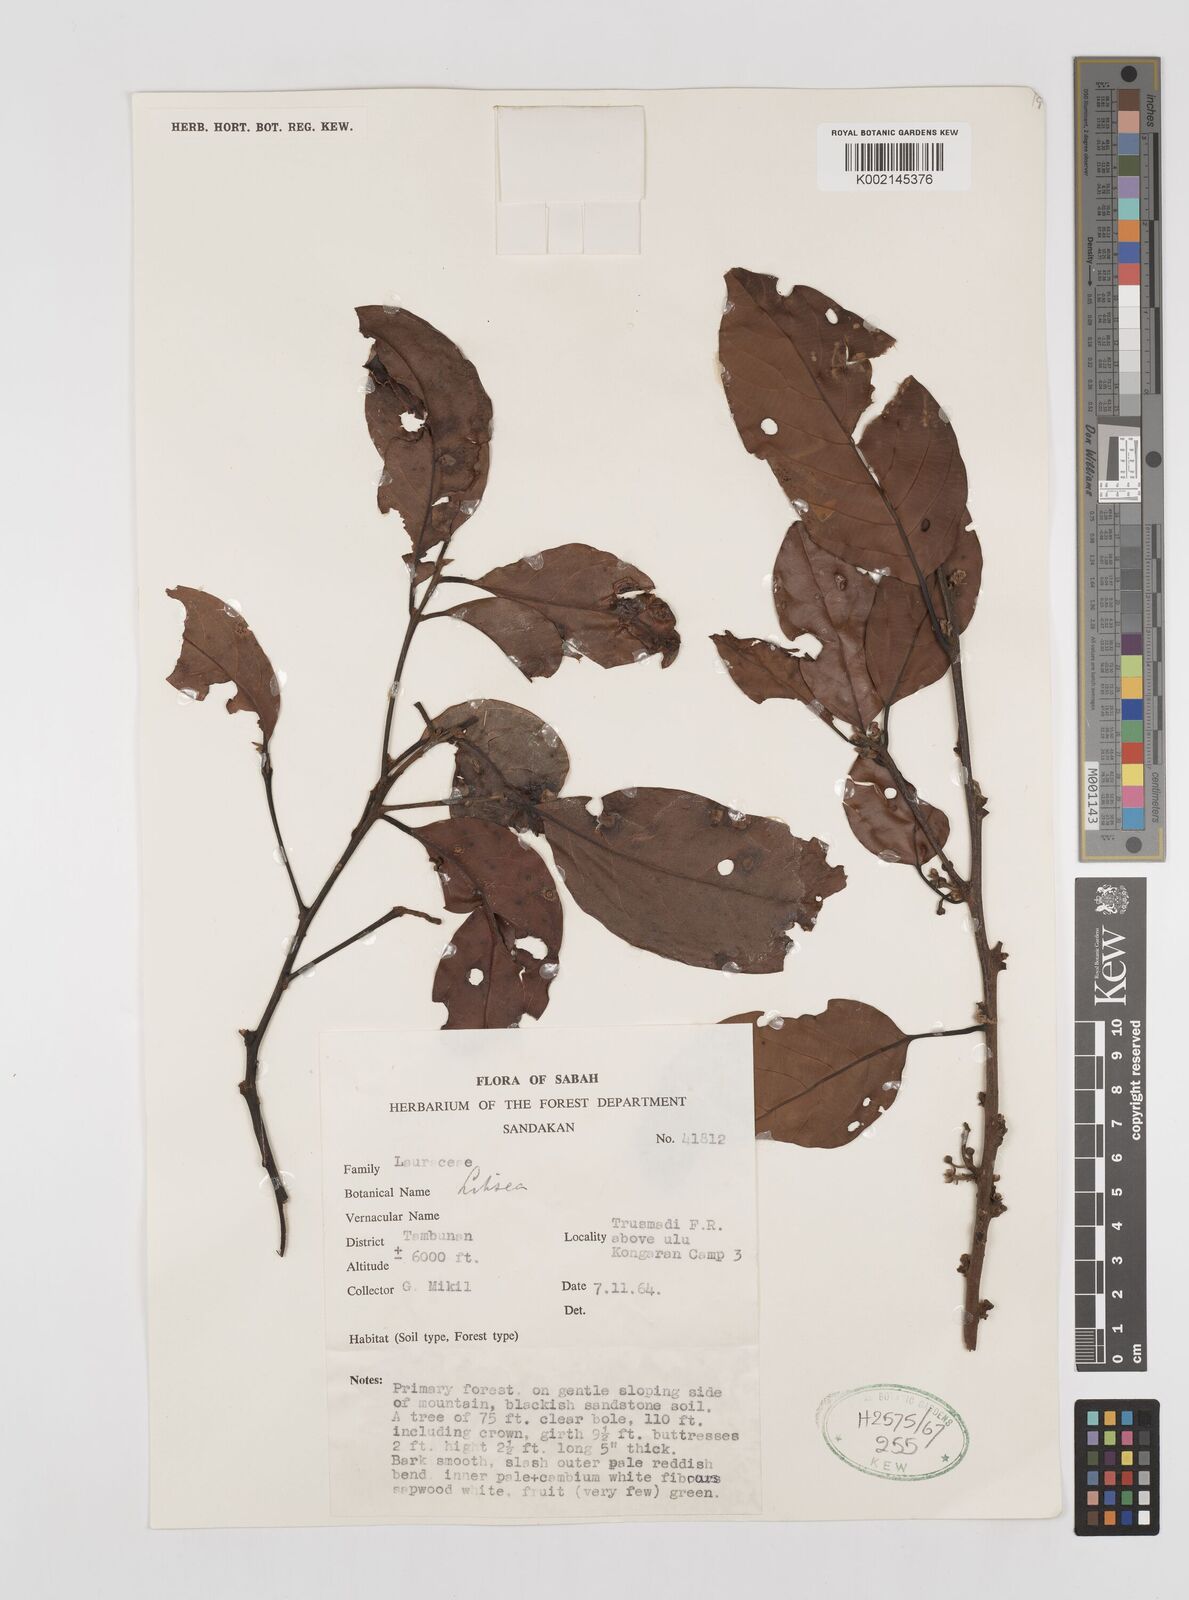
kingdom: Plantae
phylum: Tracheophyta
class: Magnoliopsida
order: Laurales
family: Lauraceae
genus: Litsea
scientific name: Litsea
